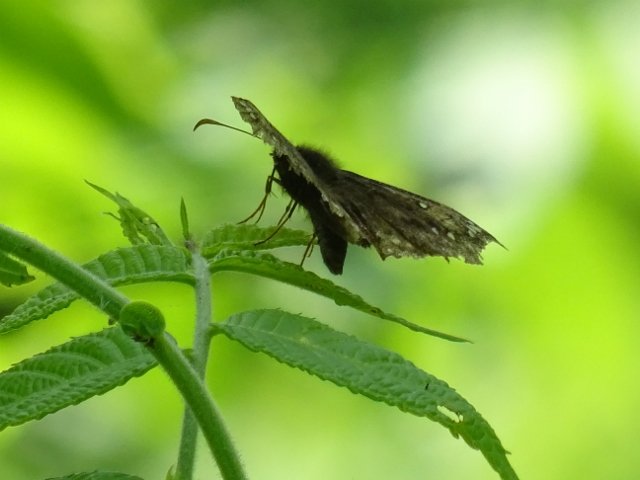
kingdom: Animalia
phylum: Arthropoda
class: Insecta
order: Lepidoptera
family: Hesperiidae
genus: Gesta
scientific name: Gesta
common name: Juvenal's Duskywing
